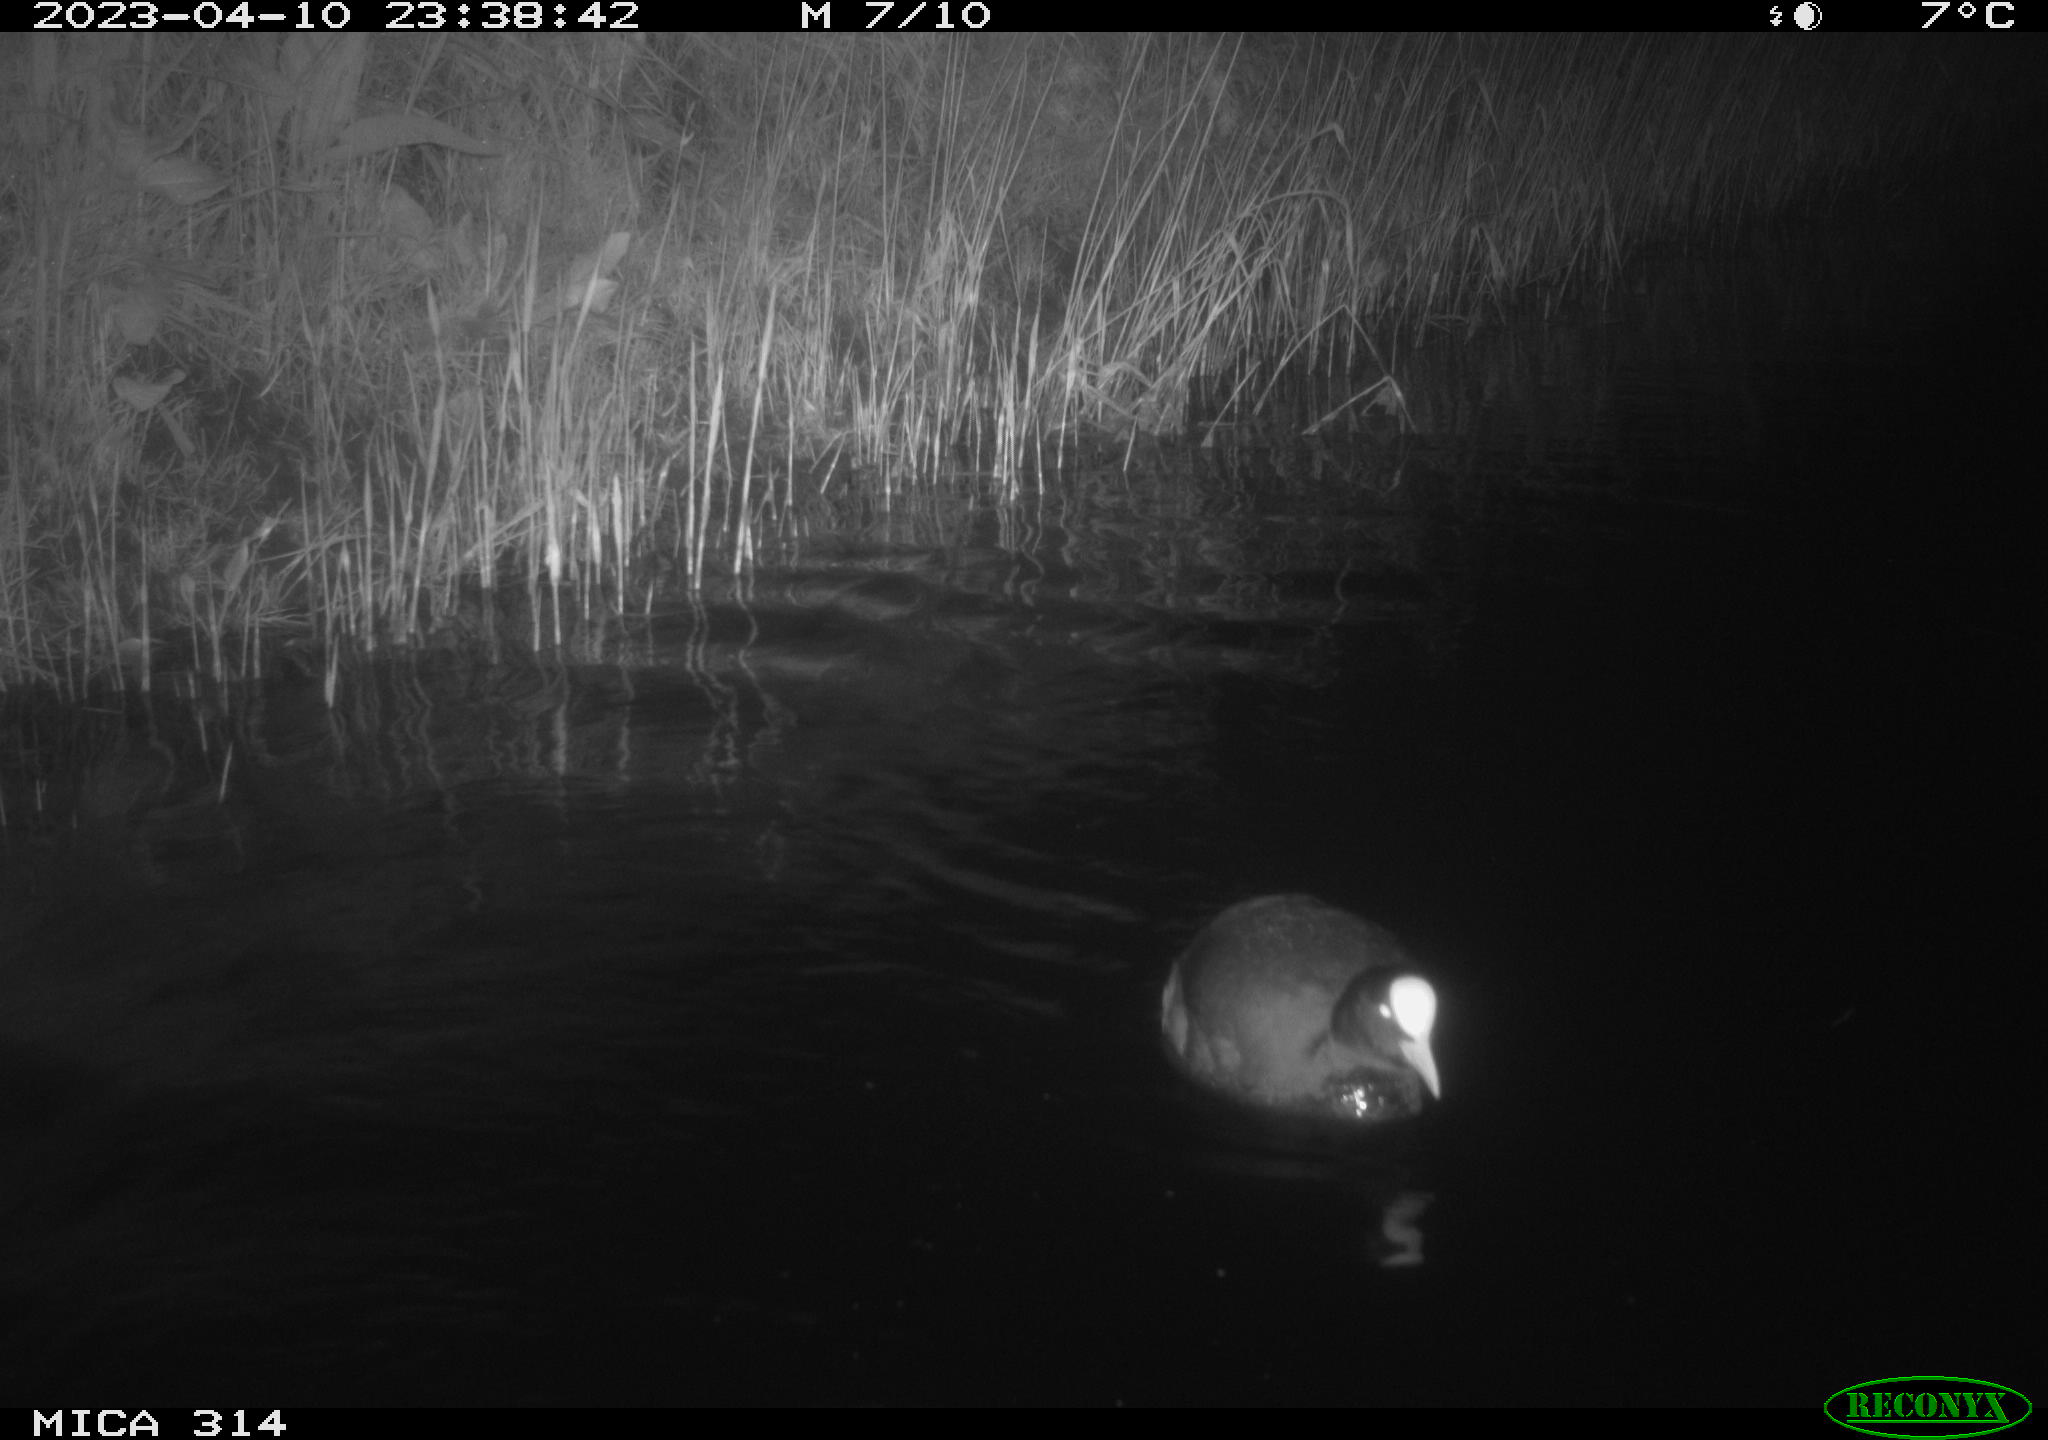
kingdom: Animalia
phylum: Chordata
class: Aves
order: Gruiformes
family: Rallidae
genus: Gallinula
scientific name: Gallinula chloropus
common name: Common moorhen
